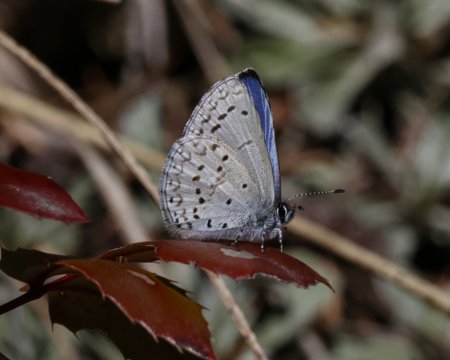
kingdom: Animalia
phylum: Arthropoda
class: Insecta
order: Lepidoptera
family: Lycaenidae
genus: Celastrina
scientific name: Celastrina ladon
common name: Echo Azure
